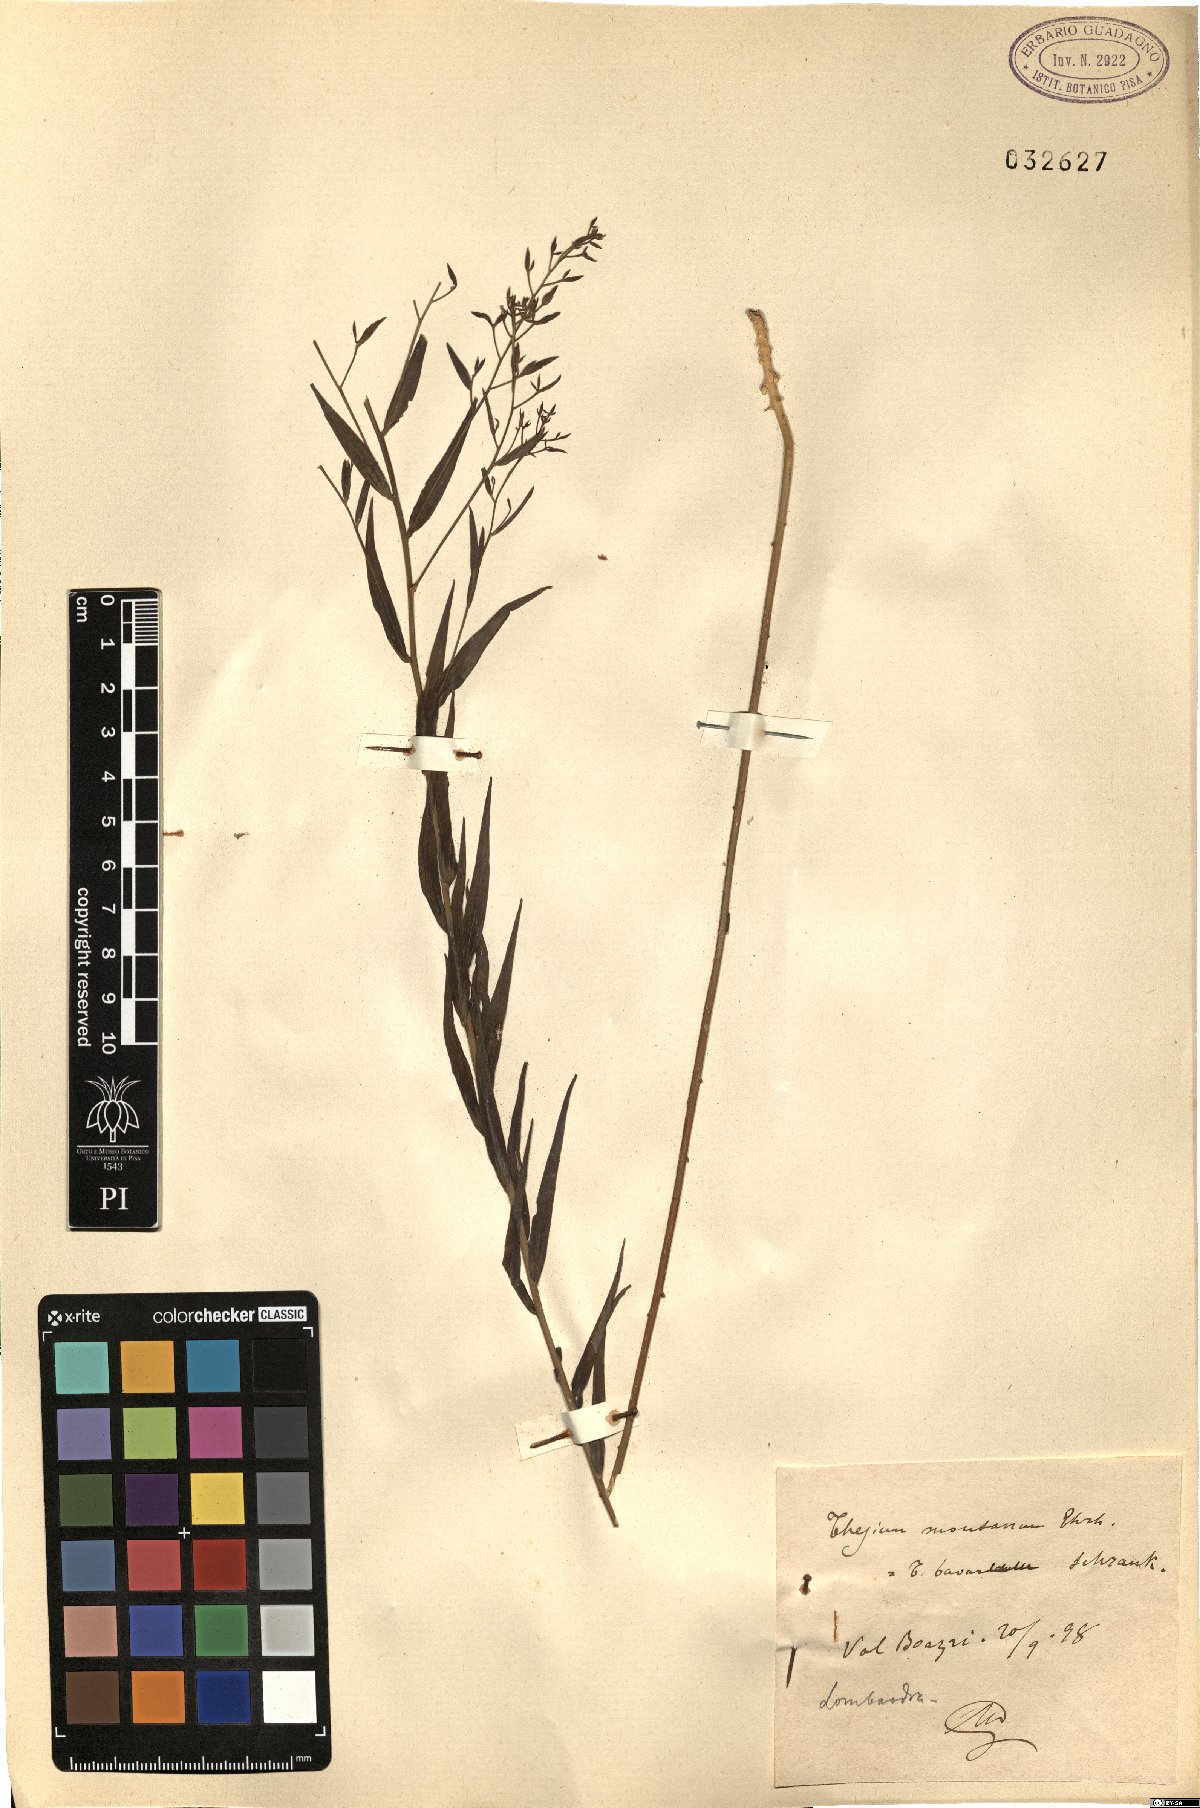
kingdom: Plantae
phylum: Tracheophyta
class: Magnoliopsida
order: Santalales
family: Thesiaceae
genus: Thesium
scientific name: Thesium bavarum
